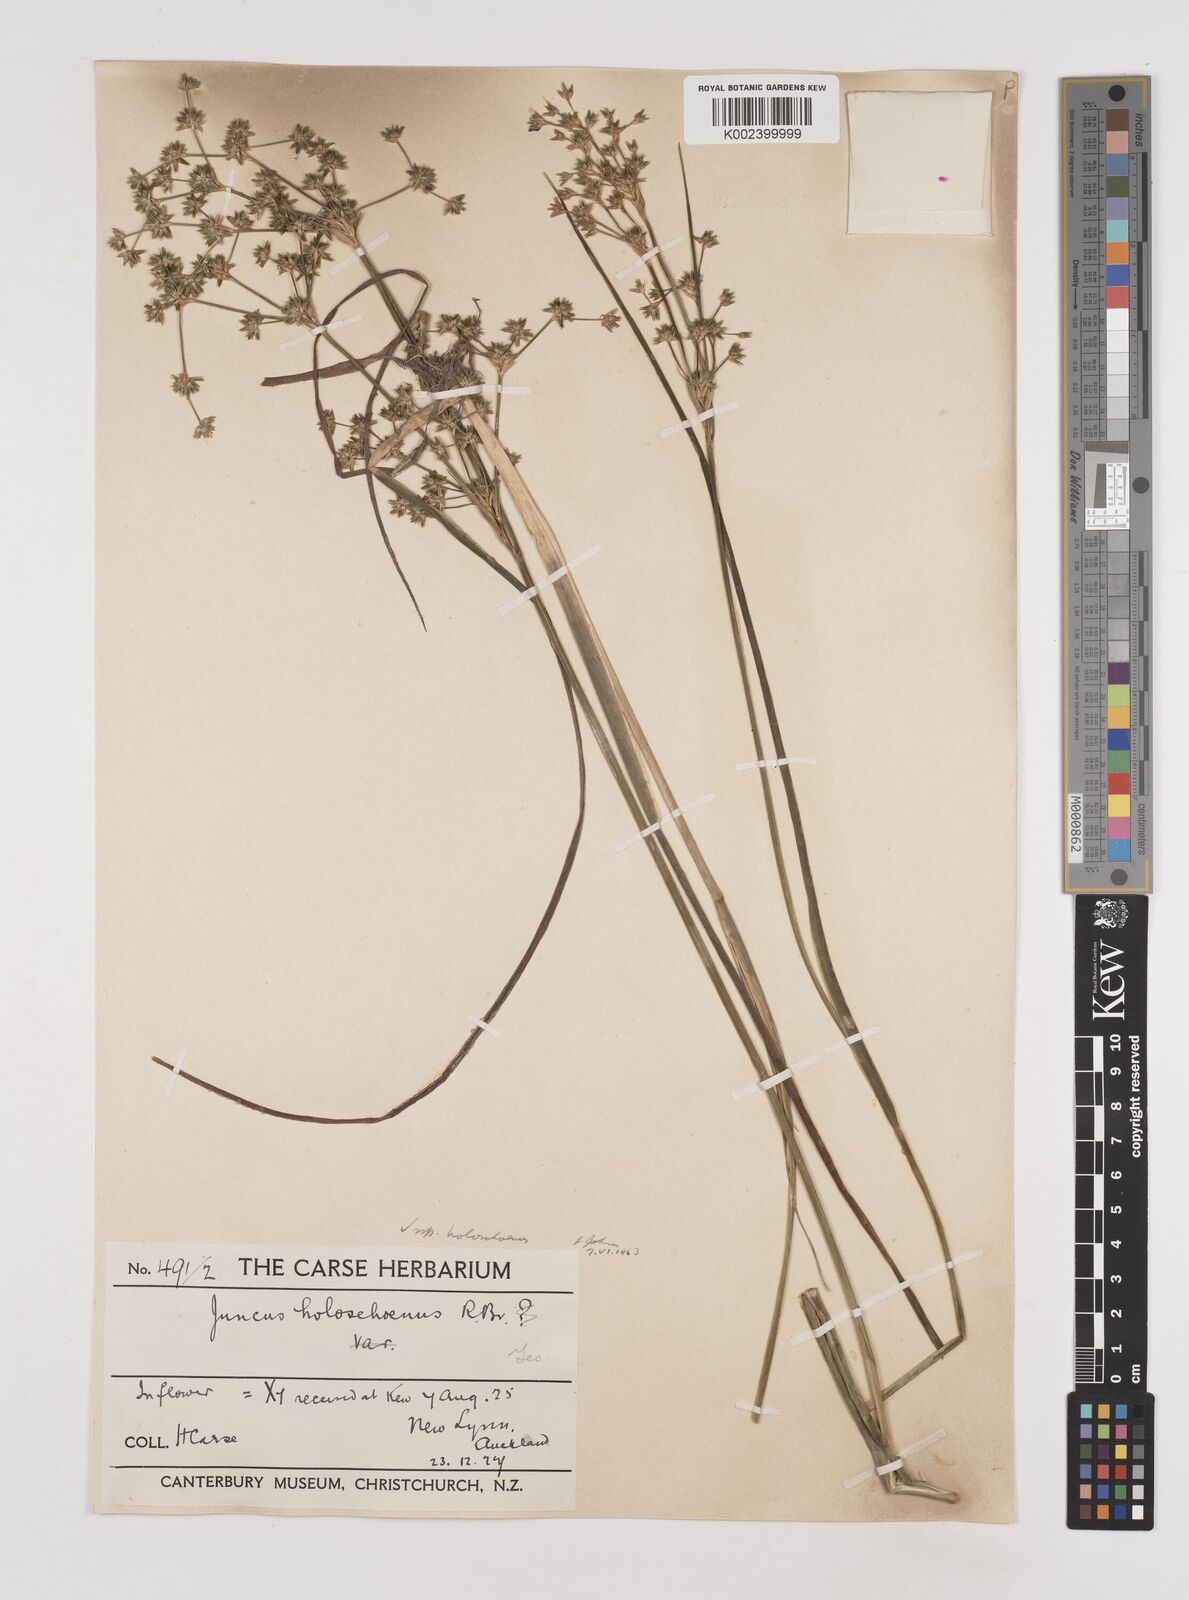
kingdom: Plantae
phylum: Tracheophyta
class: Liliopsida
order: Poales
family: Juncaceae
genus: Juncus
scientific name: Juncus holoschoenus
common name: Joint-leaf rush
